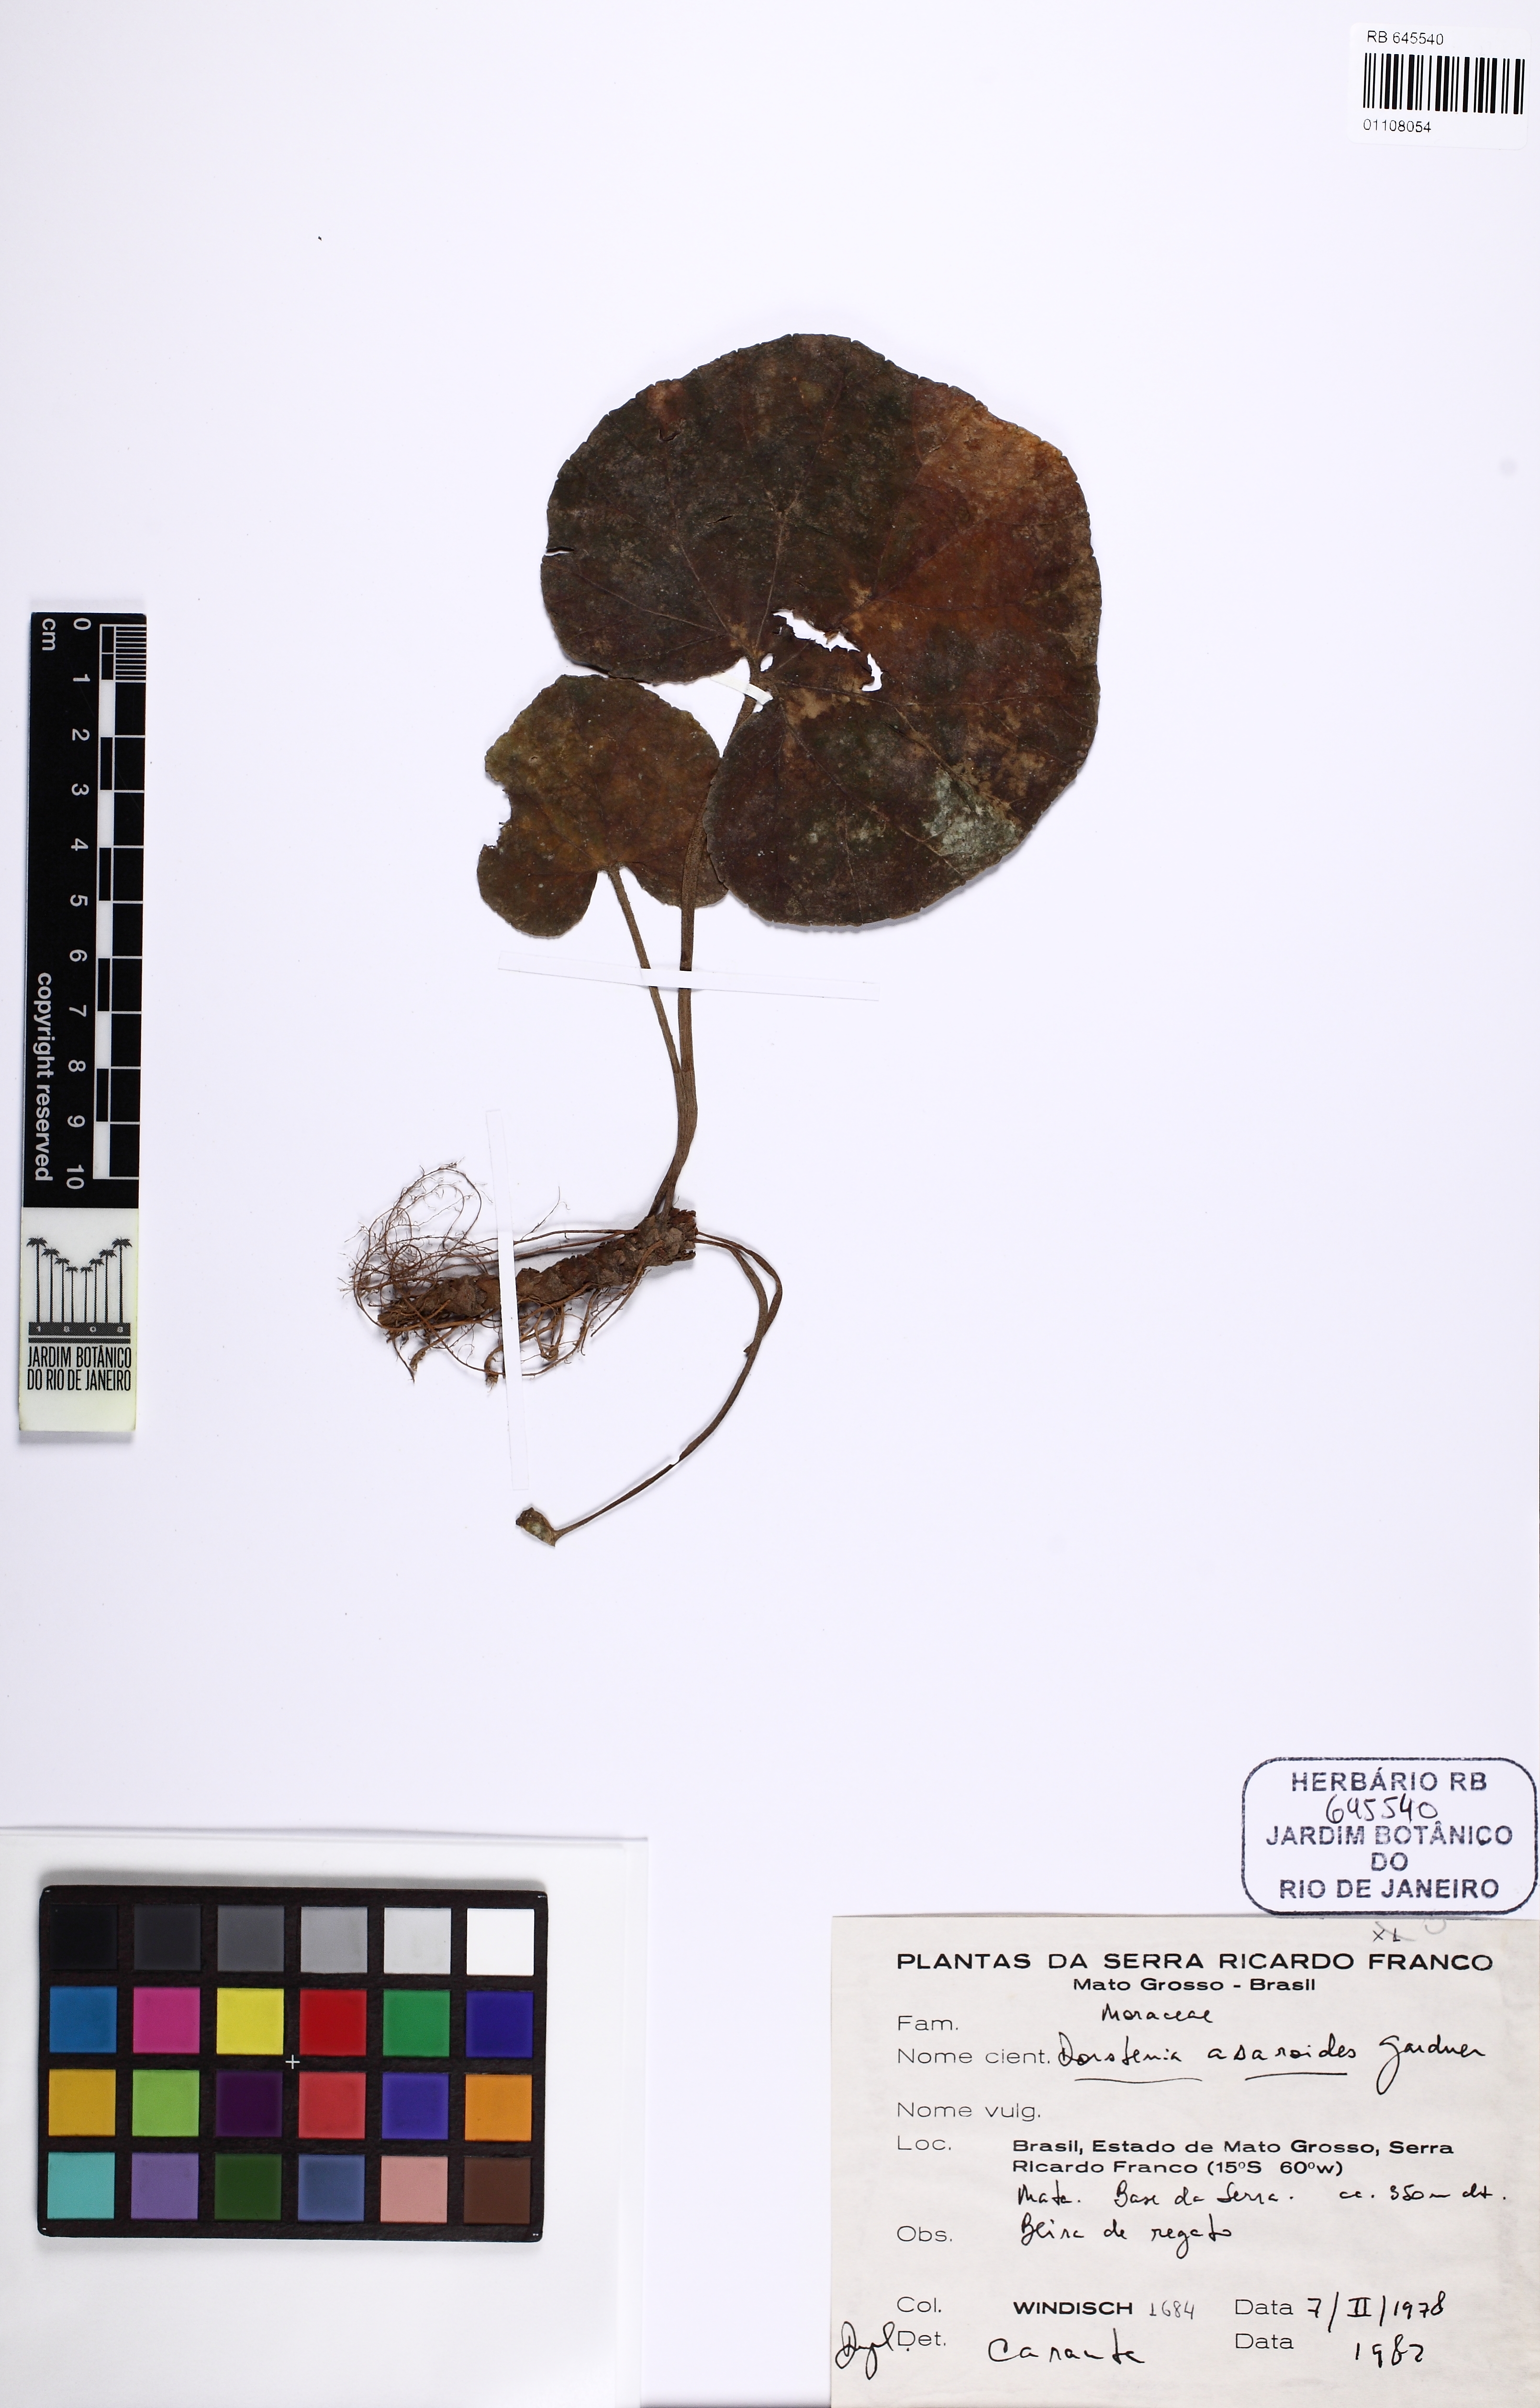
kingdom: Plantae
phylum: Tracheophyta
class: Magnoliopsida
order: Rosales
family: Moraceae
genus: Dorstenia
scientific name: Dorstenia cayapia
